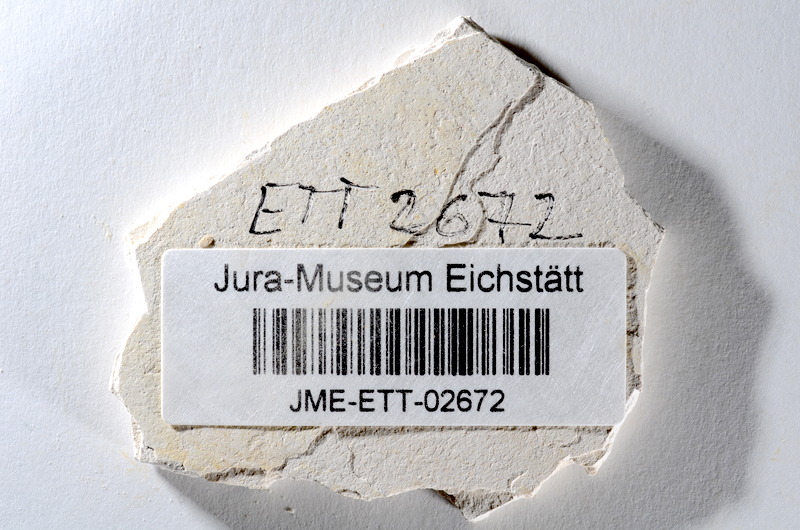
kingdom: Animalia
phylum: Chordata
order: Salmoniformes
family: Orthogonikleithridae
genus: Orthogonikleithrus
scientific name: Orthogonikleithrus hoelli
